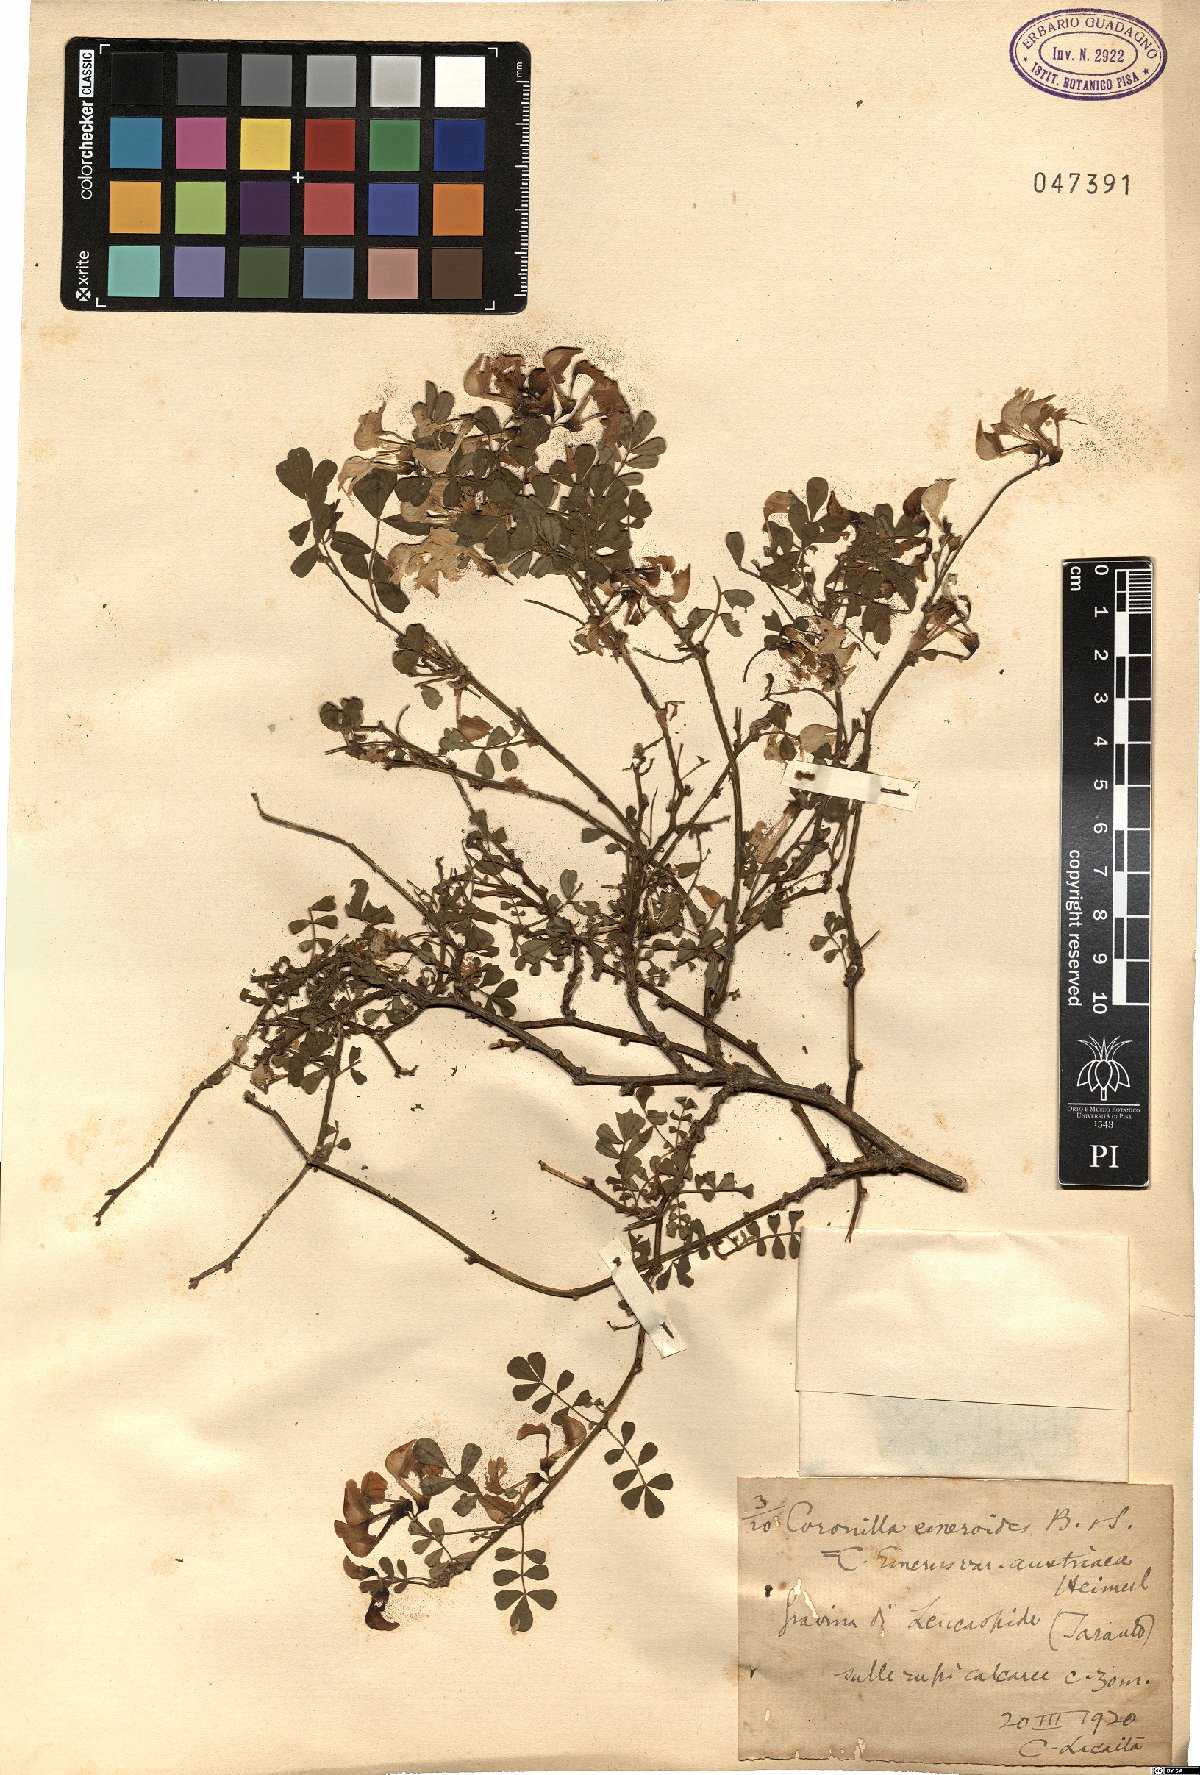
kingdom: Plantae
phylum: Tracheophyta
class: Magnoliopsida
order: Fabales
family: Fabaceae
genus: Hippocrepis
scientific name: Hippocrepis emerus
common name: Scorpion senna
